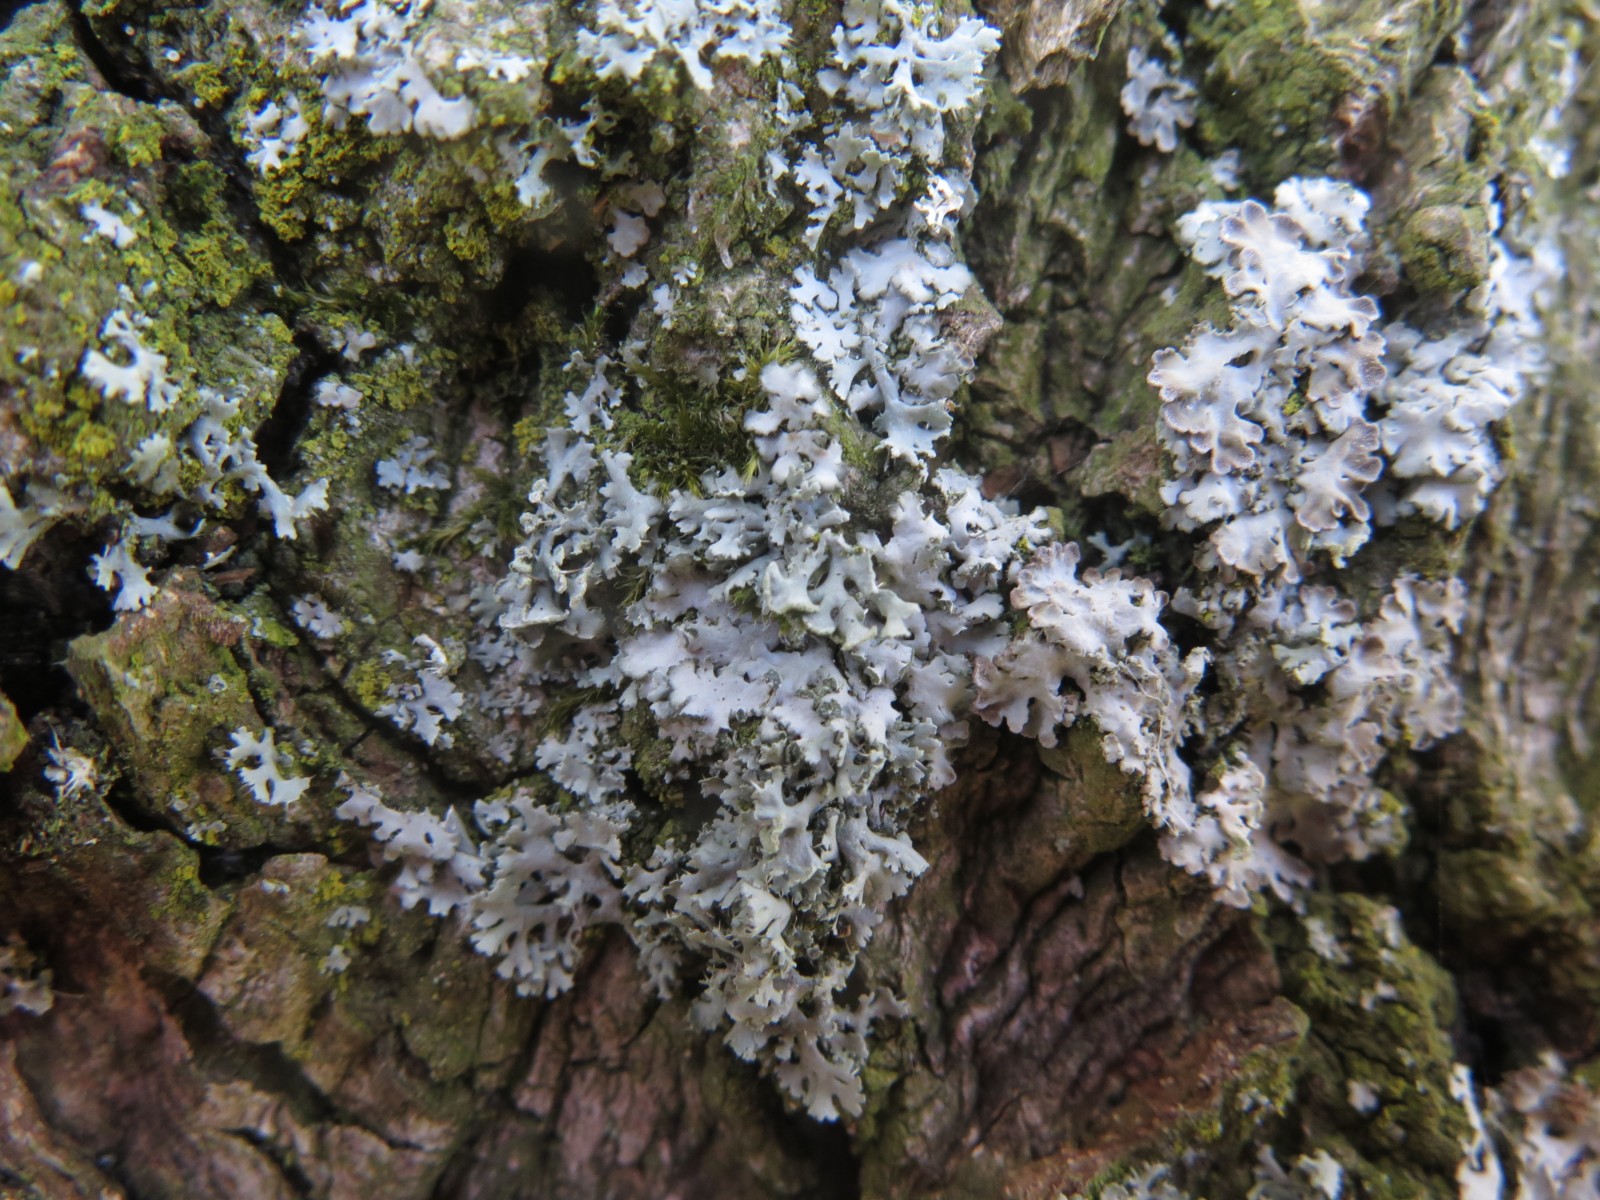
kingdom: Fungi
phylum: Ascomycota
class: Lecanoromycetes
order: Caliciales
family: Physciaceae
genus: Physcia
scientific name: Physcia tenella
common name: spæd rosetlav
